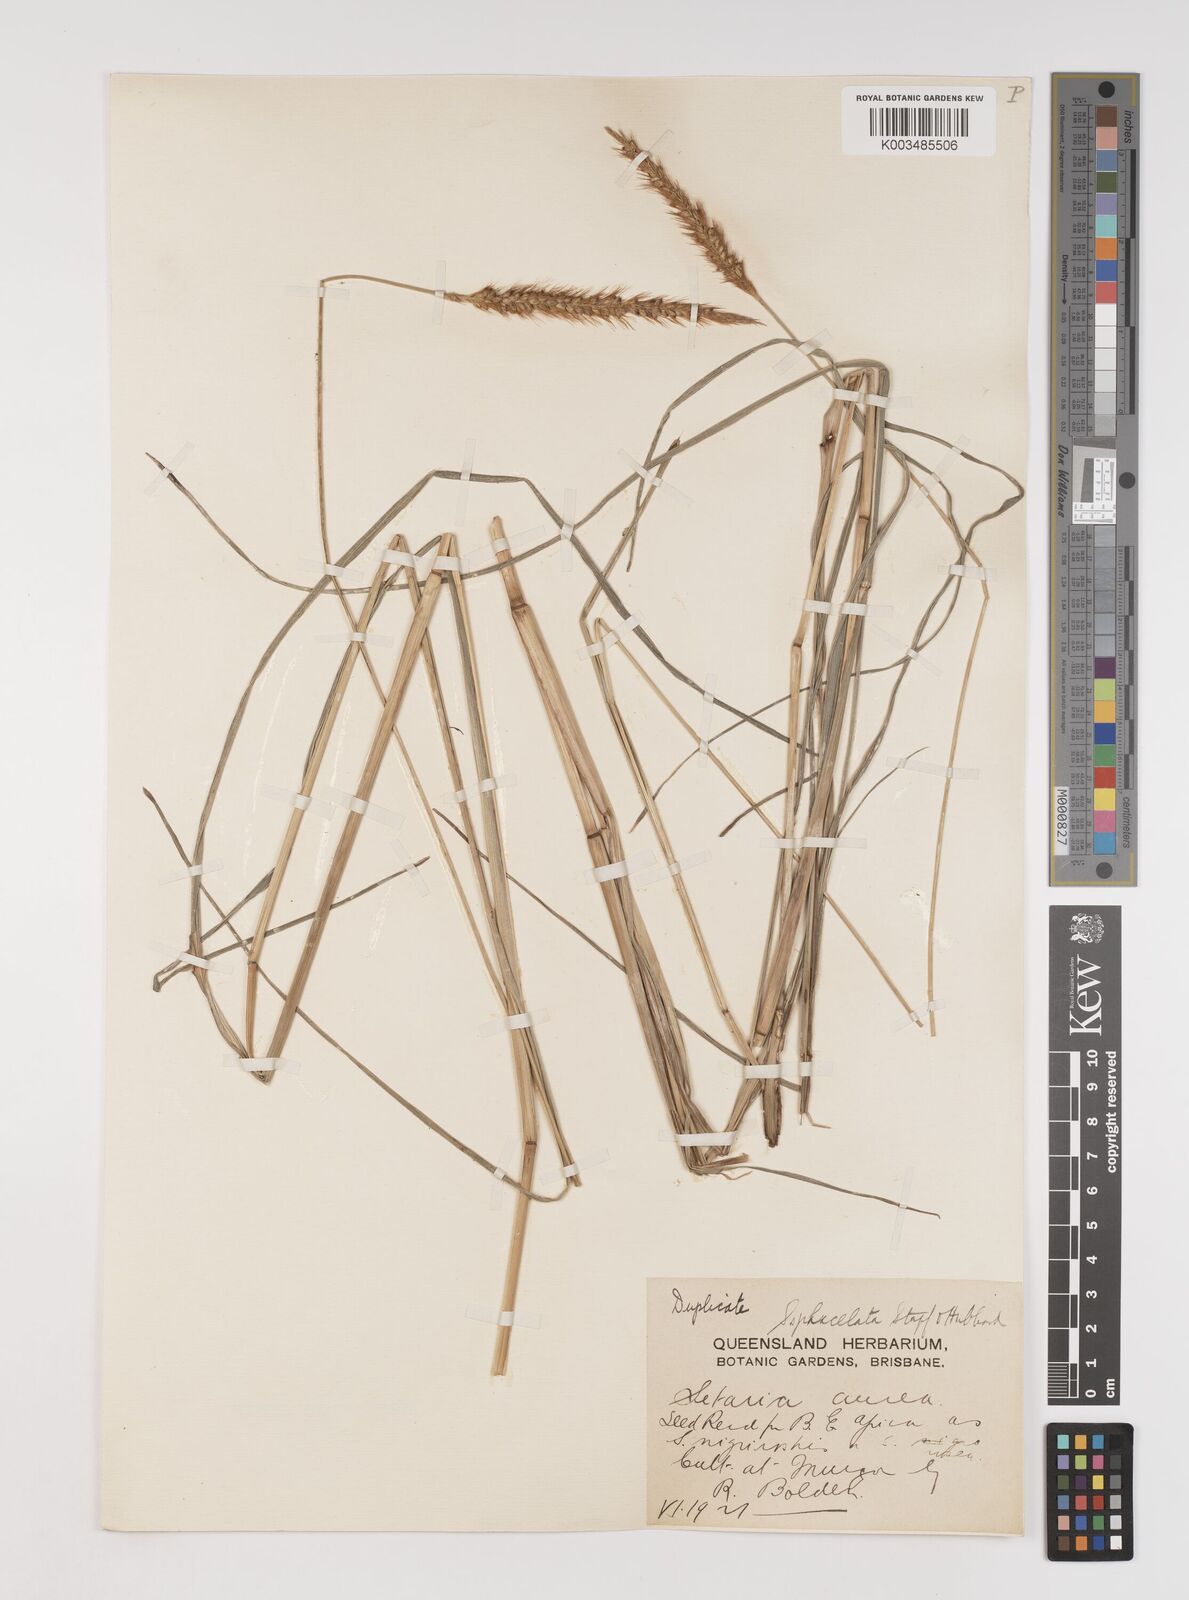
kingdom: Plantae
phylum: Tracheophyta
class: Liliopsida
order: Poales
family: Poaceae
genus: Setaria
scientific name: Setaria sphacelata
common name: African bristlegrass
